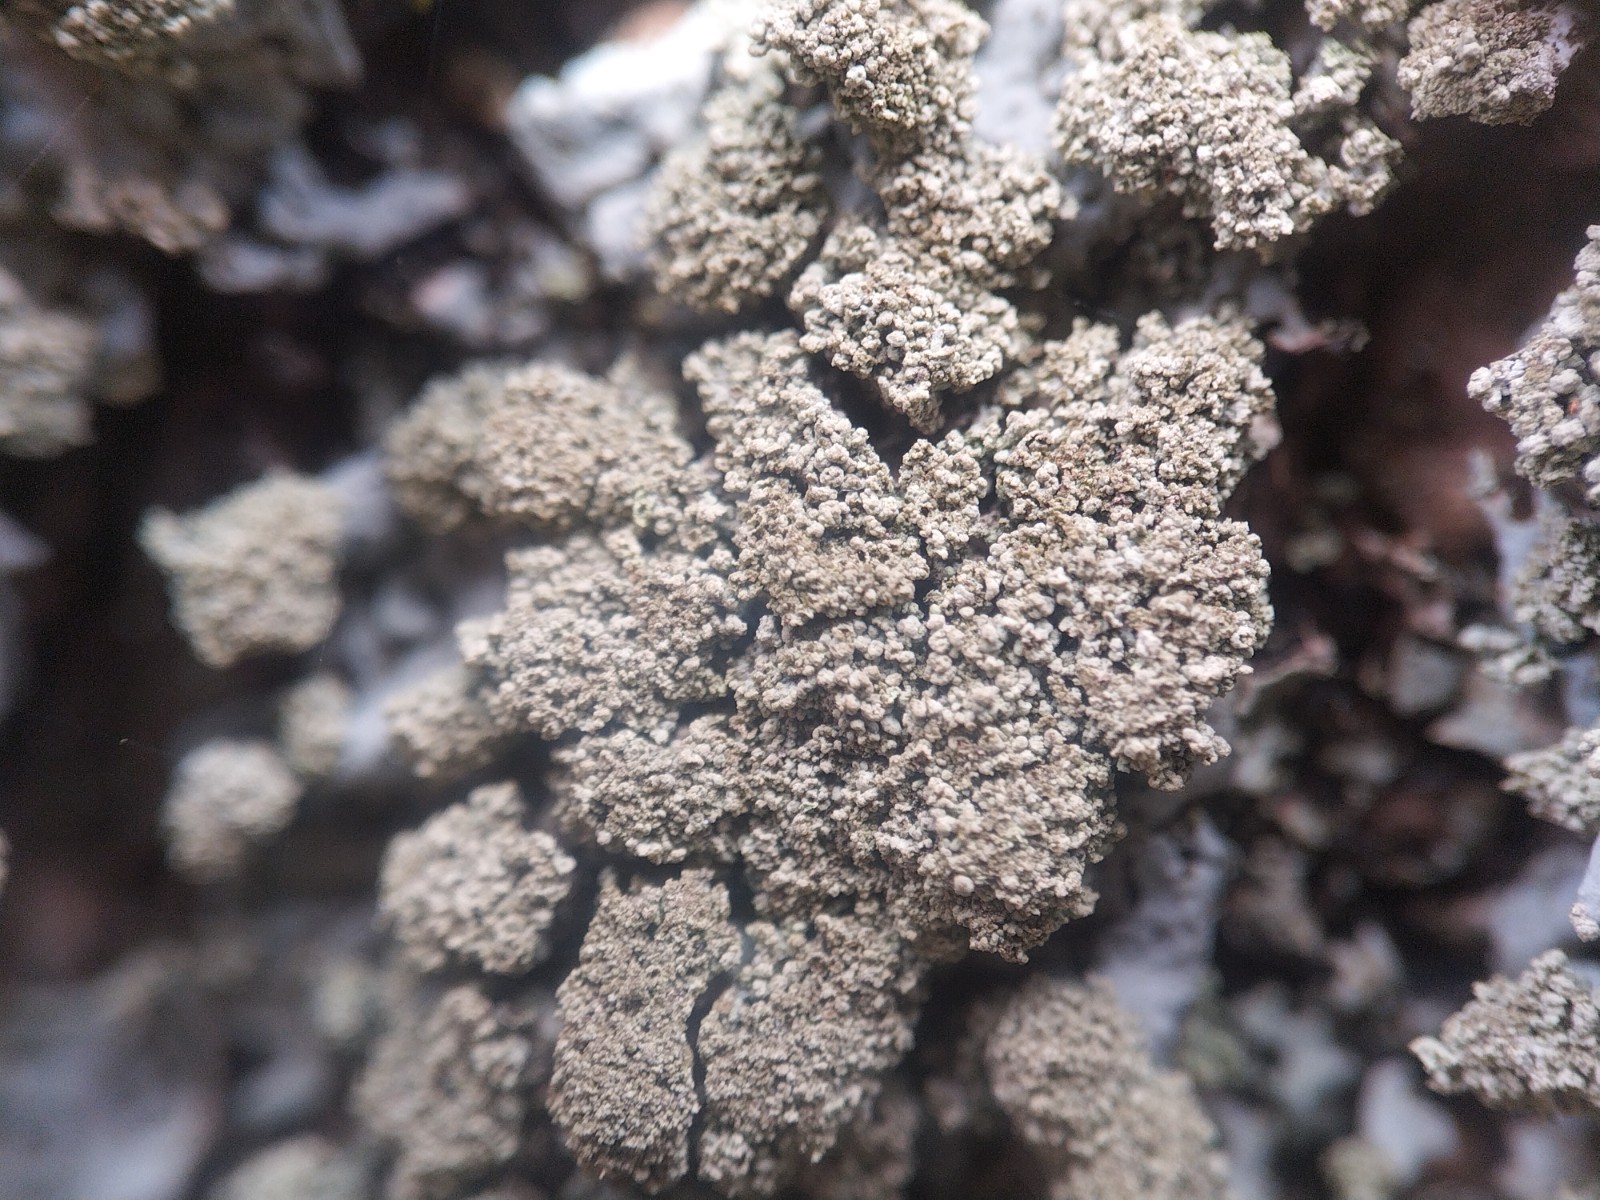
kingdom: Fungi
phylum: Ascomycota
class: Lecanoromycetes
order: Lecanorales
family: Parmeliaceae
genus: Hypotrachyna
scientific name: Hypotrachyna afrorevoluta
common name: kyst-skållav
